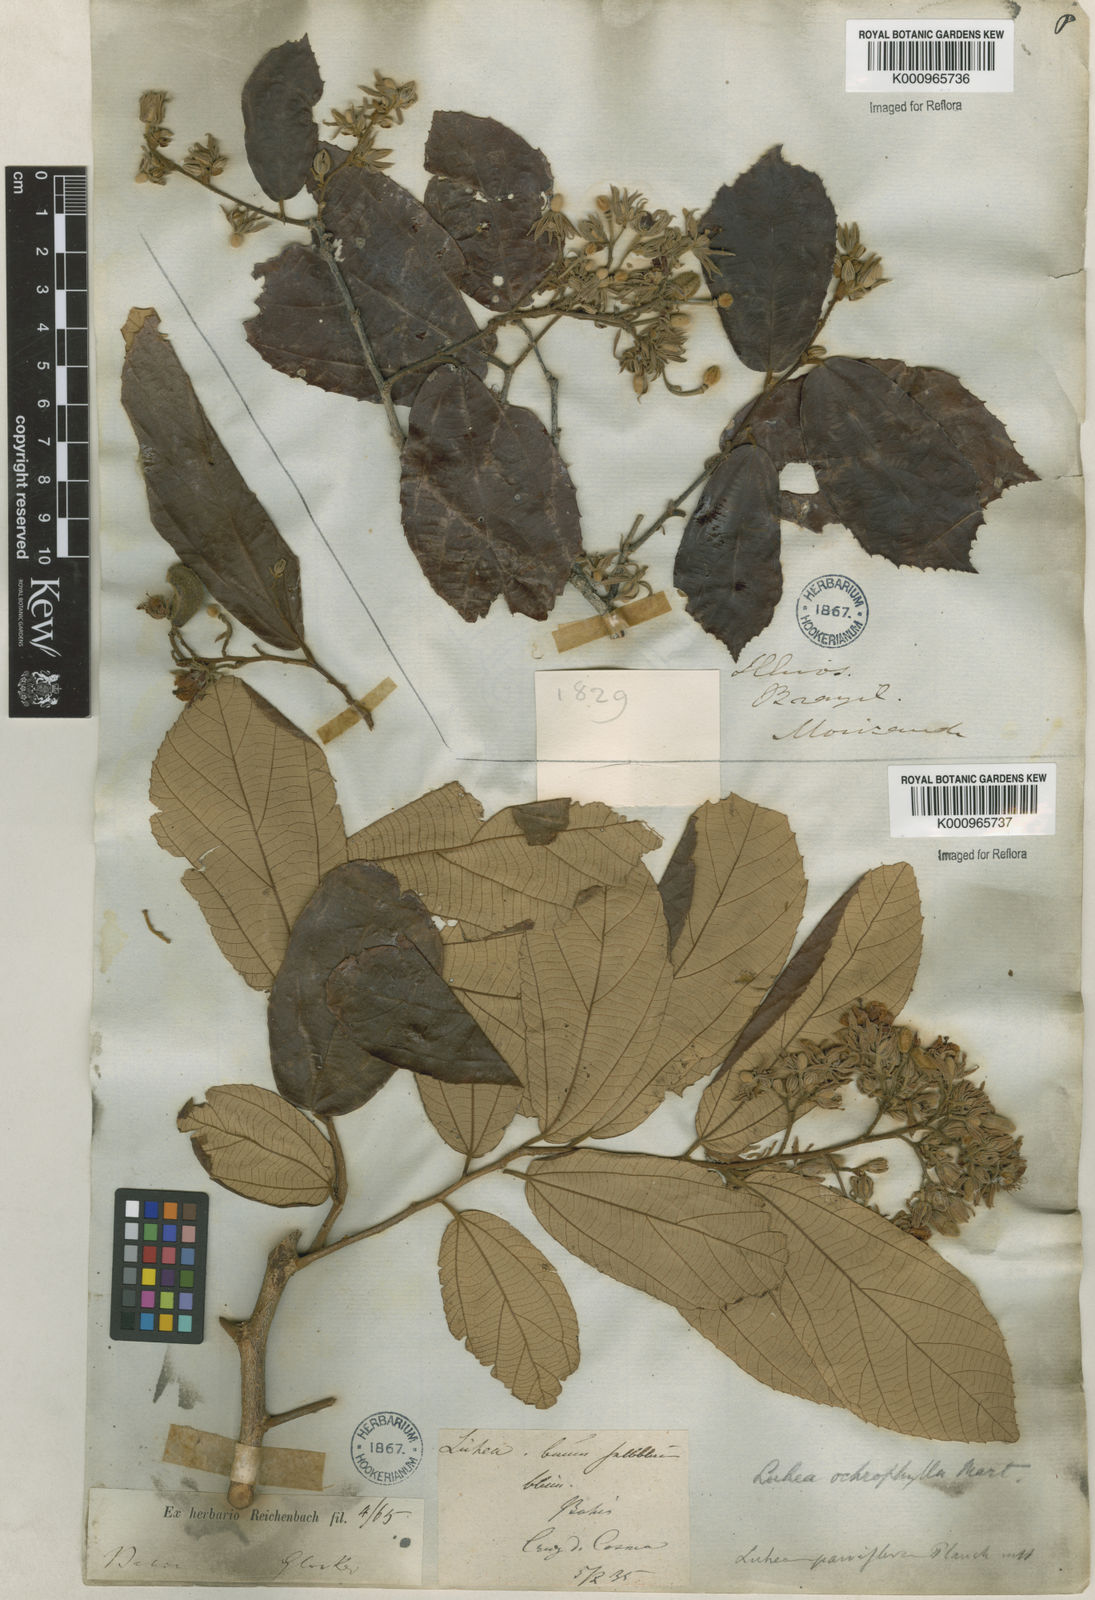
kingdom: Plantae
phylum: Tracheophyta
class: Magnoliopsida
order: Malvales
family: Malvaceae
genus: Luehea
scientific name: Luehea paniculata
